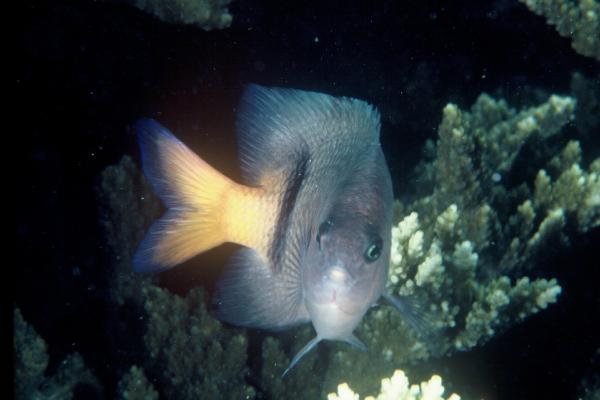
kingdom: Animalia
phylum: Chordata
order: Perciformes
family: Pomacentridae
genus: Plectroglyphidodon
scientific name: Plectroglyphidodon dickii
